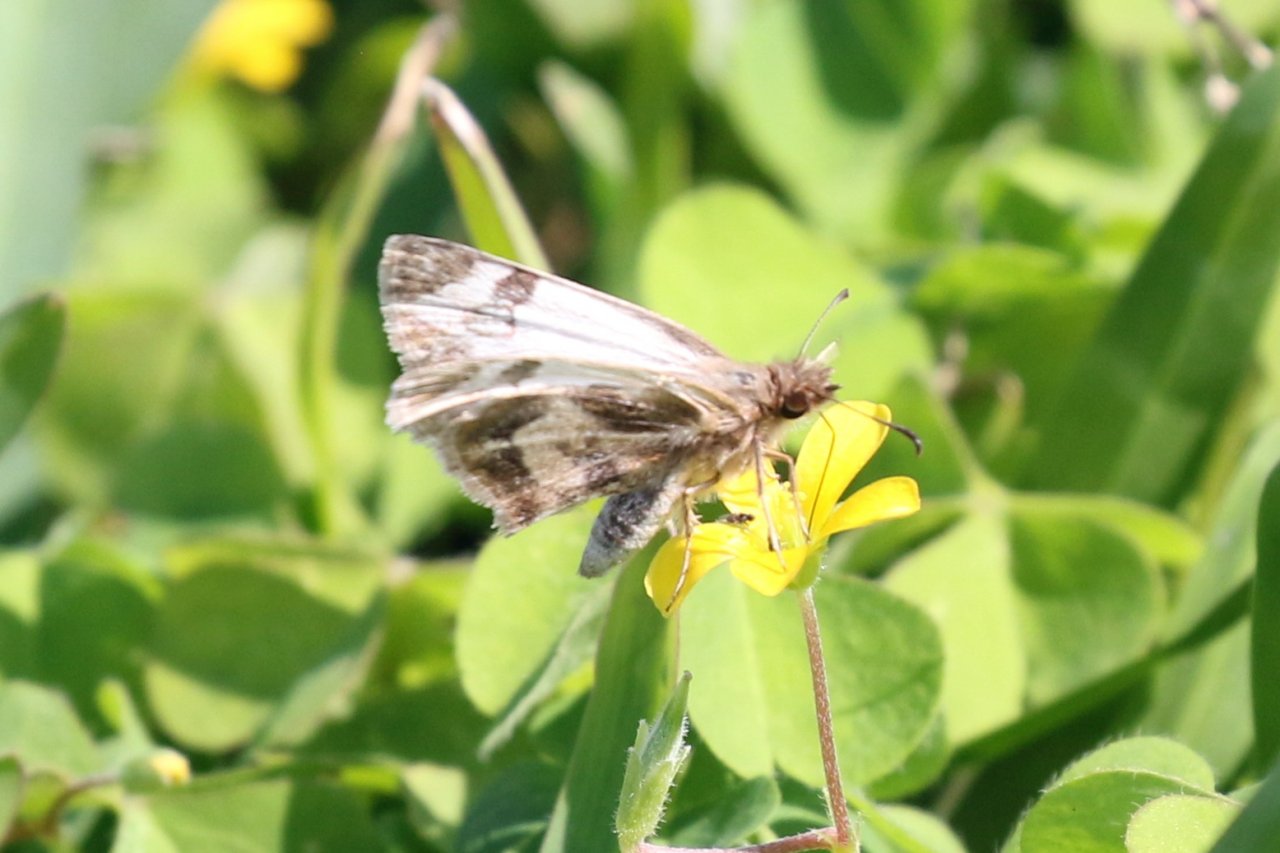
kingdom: Animalia
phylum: Arthropoda
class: Insecta
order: Lepidoptera
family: Hesperiidae
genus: Heliopetes
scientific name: Heliopetes macaira
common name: Turk's-cap White-Skipper
